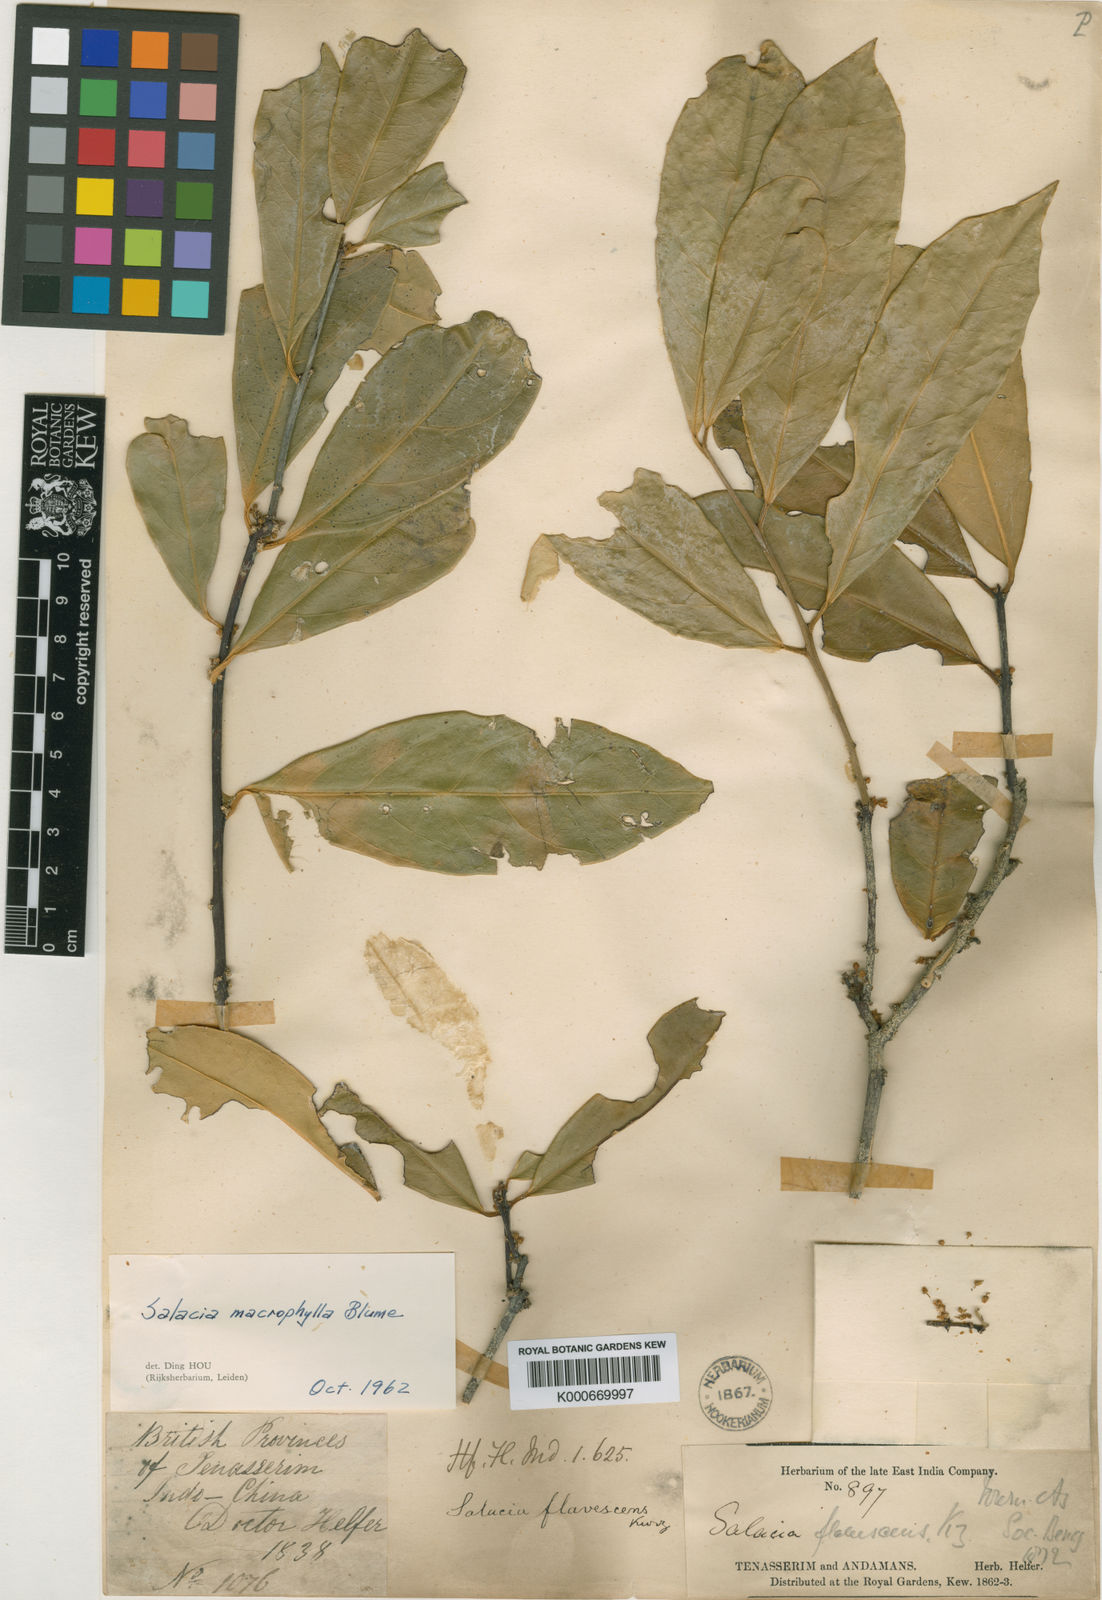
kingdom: Plantae
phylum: Tracheophyta
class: Magnoliopsida
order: Celastrales
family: Celastraceae
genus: Salacia
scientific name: Salacia macrophylla
